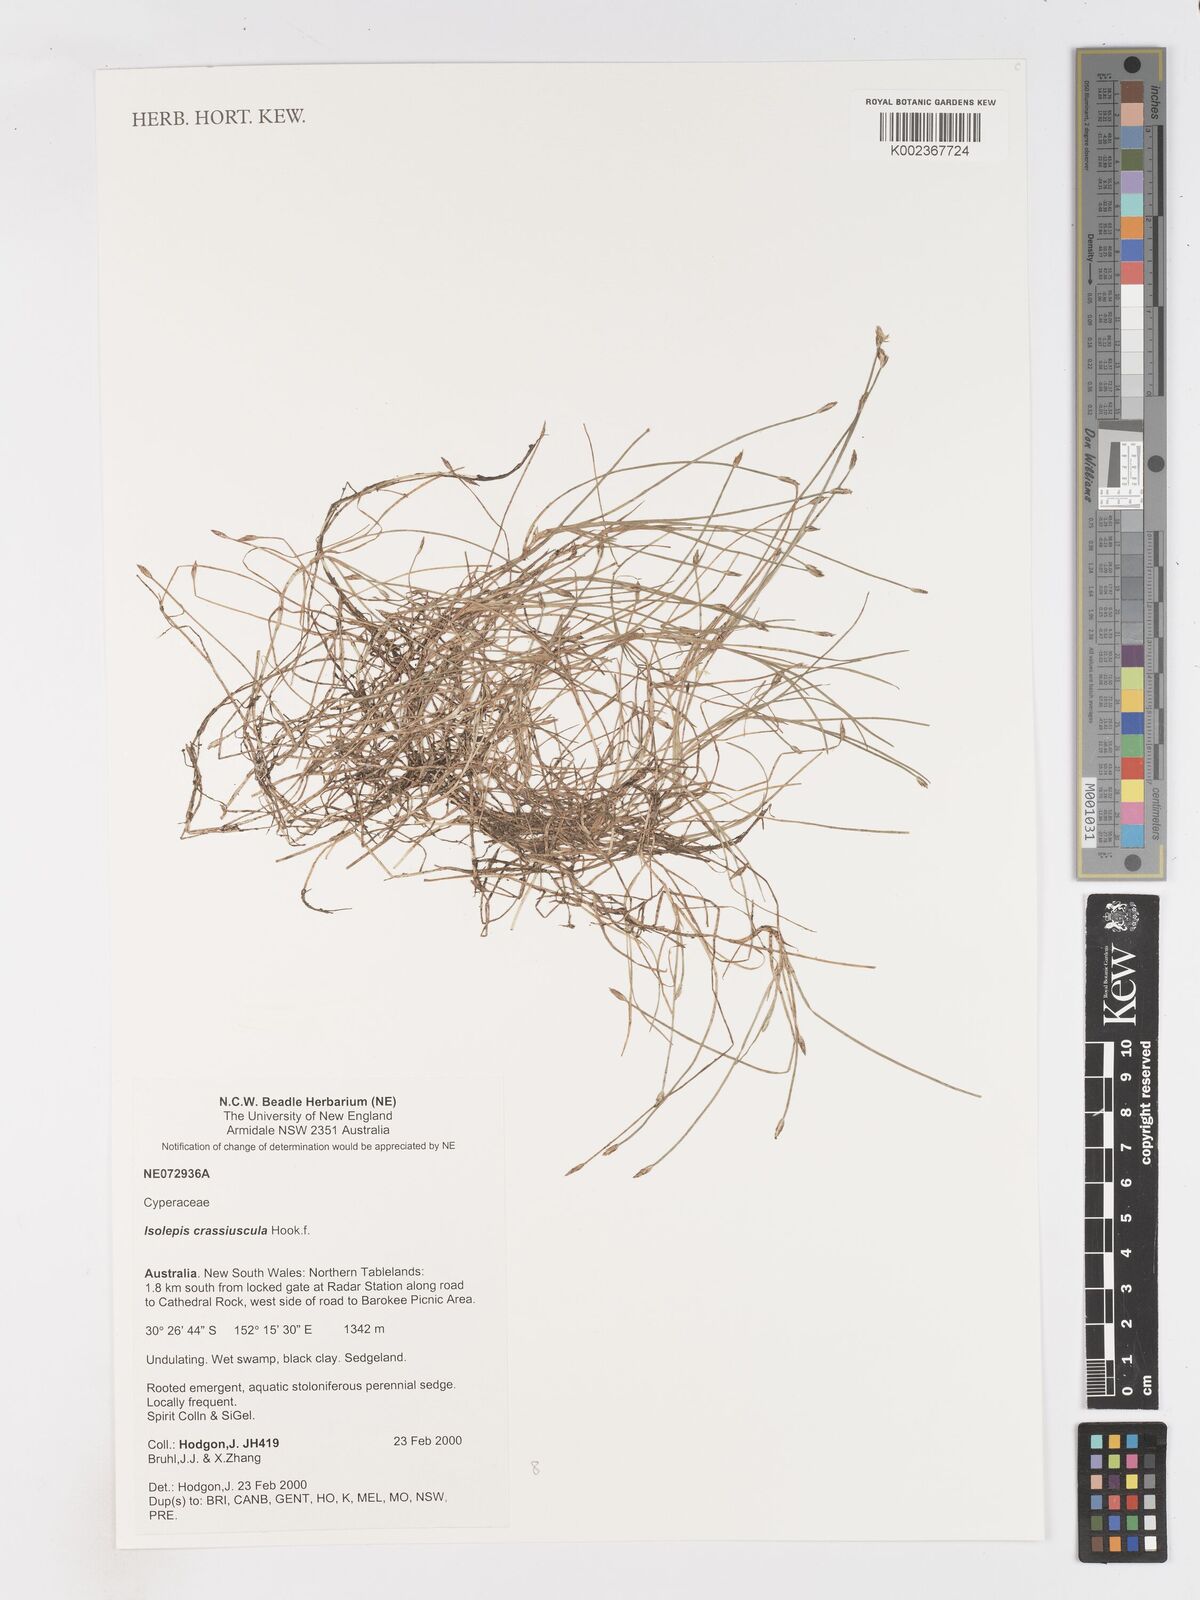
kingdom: Plantae
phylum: Tracheophyta
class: Liliopsida
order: Poales
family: Cyperaceae
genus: Isolepis
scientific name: Isolepis crassiuscula
